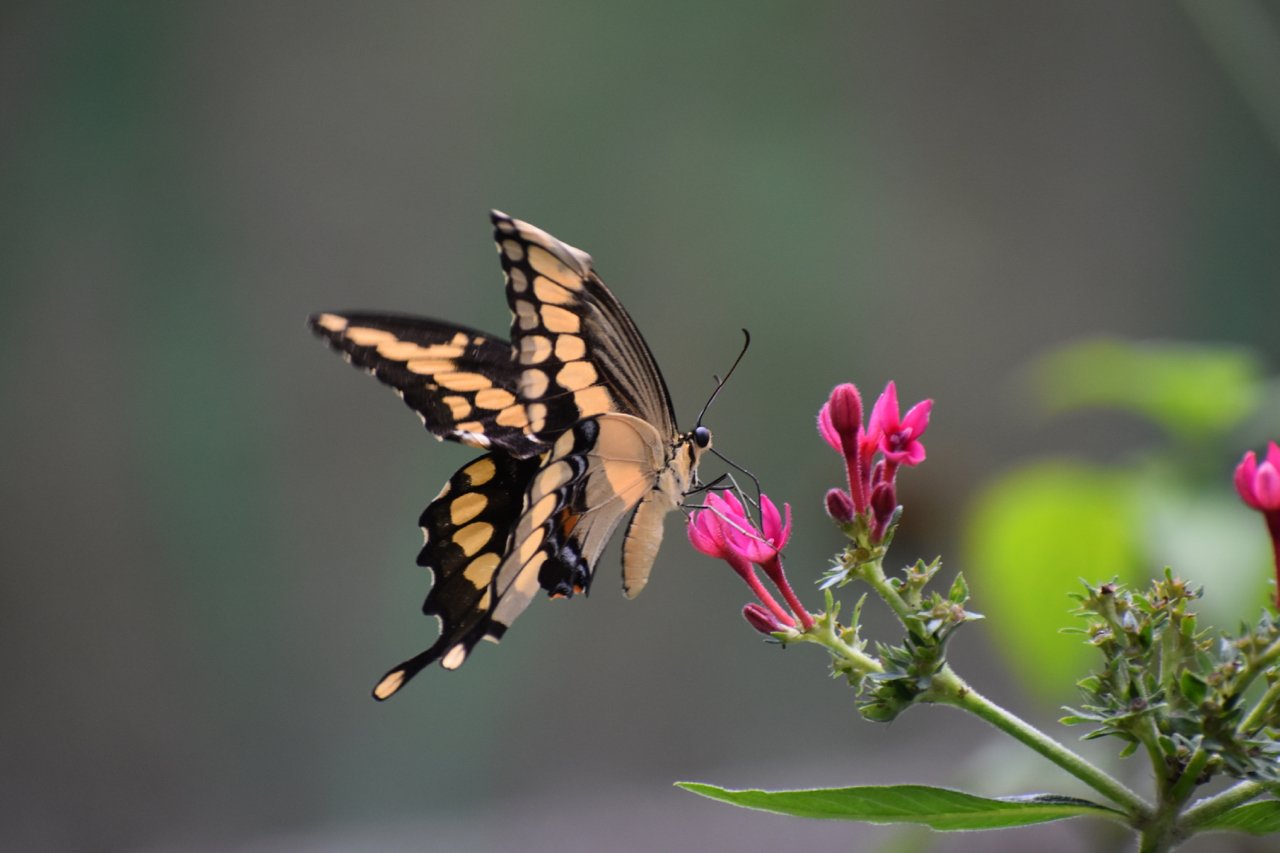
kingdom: Animalia
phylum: Arthropoda
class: Insecta
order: Lepidoptera
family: Papilionidae
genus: Papilio
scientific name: Papilio cresphontes
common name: Eastern Giant Swallowtail
